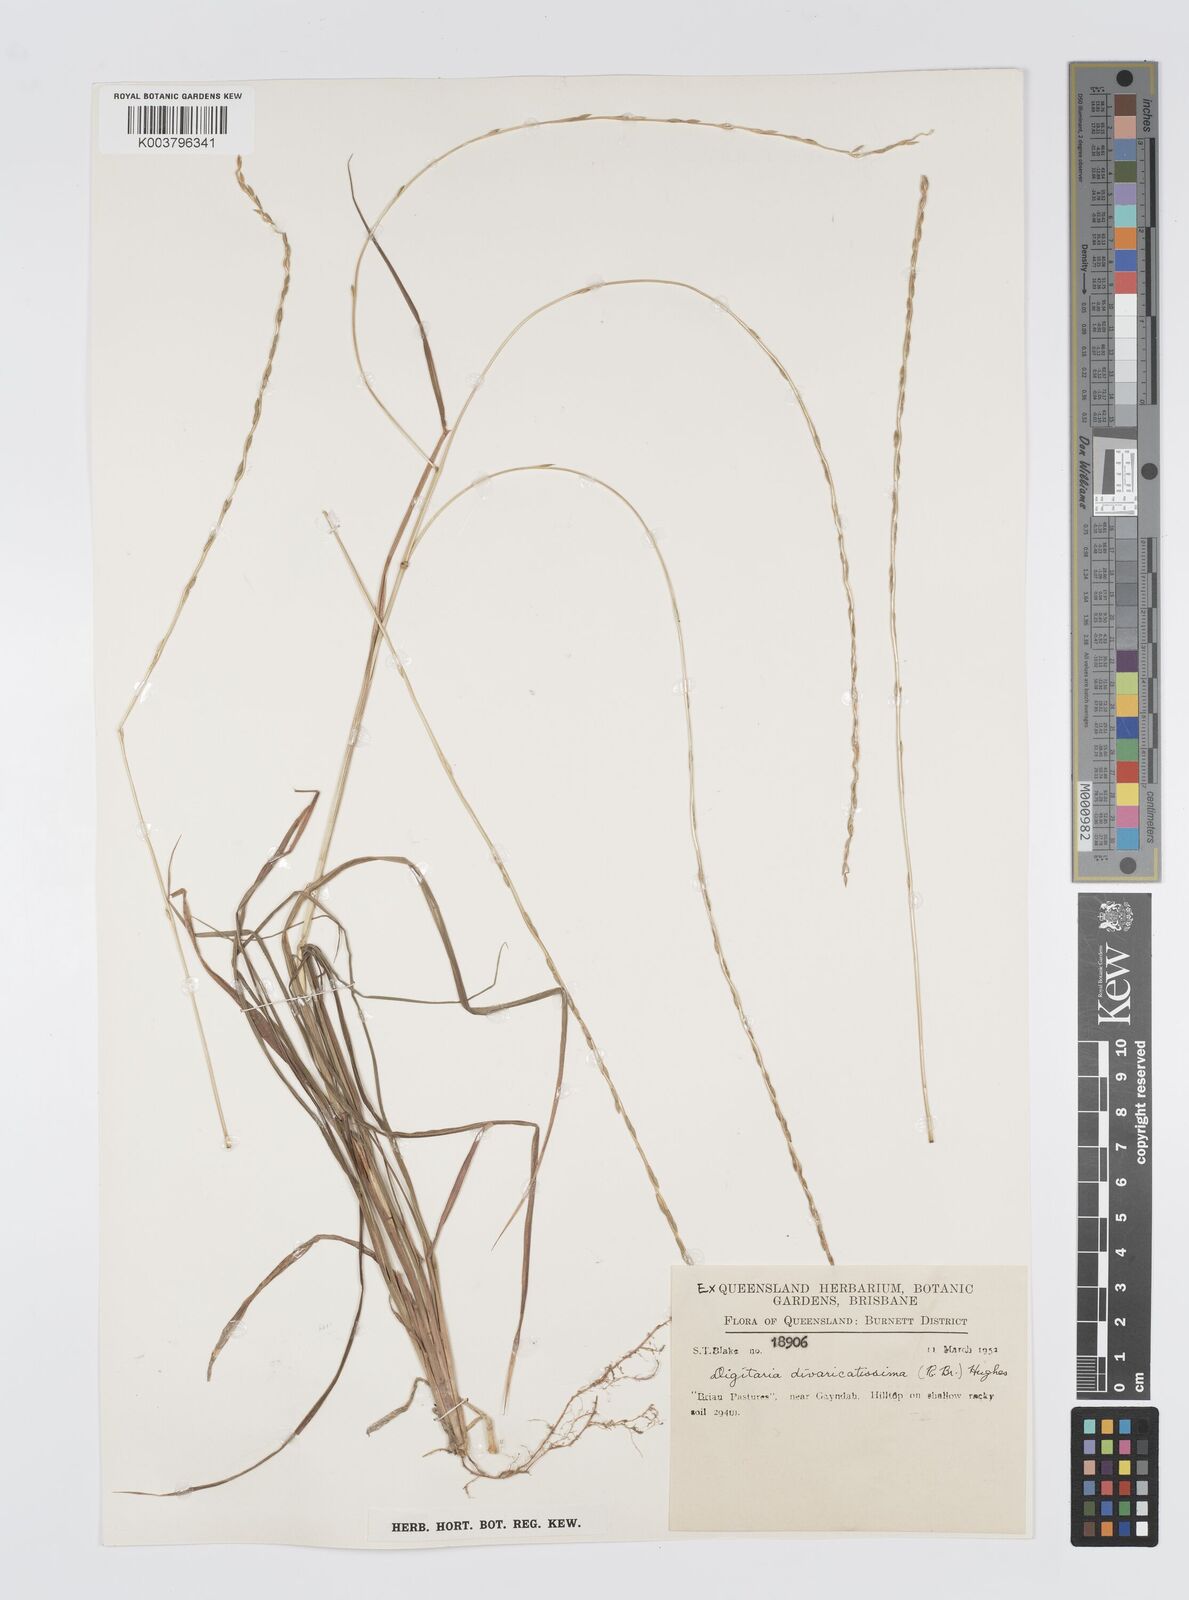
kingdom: Plantae
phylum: Tracheophyta
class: Liliopsida
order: Poales
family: Poaceae
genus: Digitaria
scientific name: Digitaria divaricatissima
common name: Crabgrass
